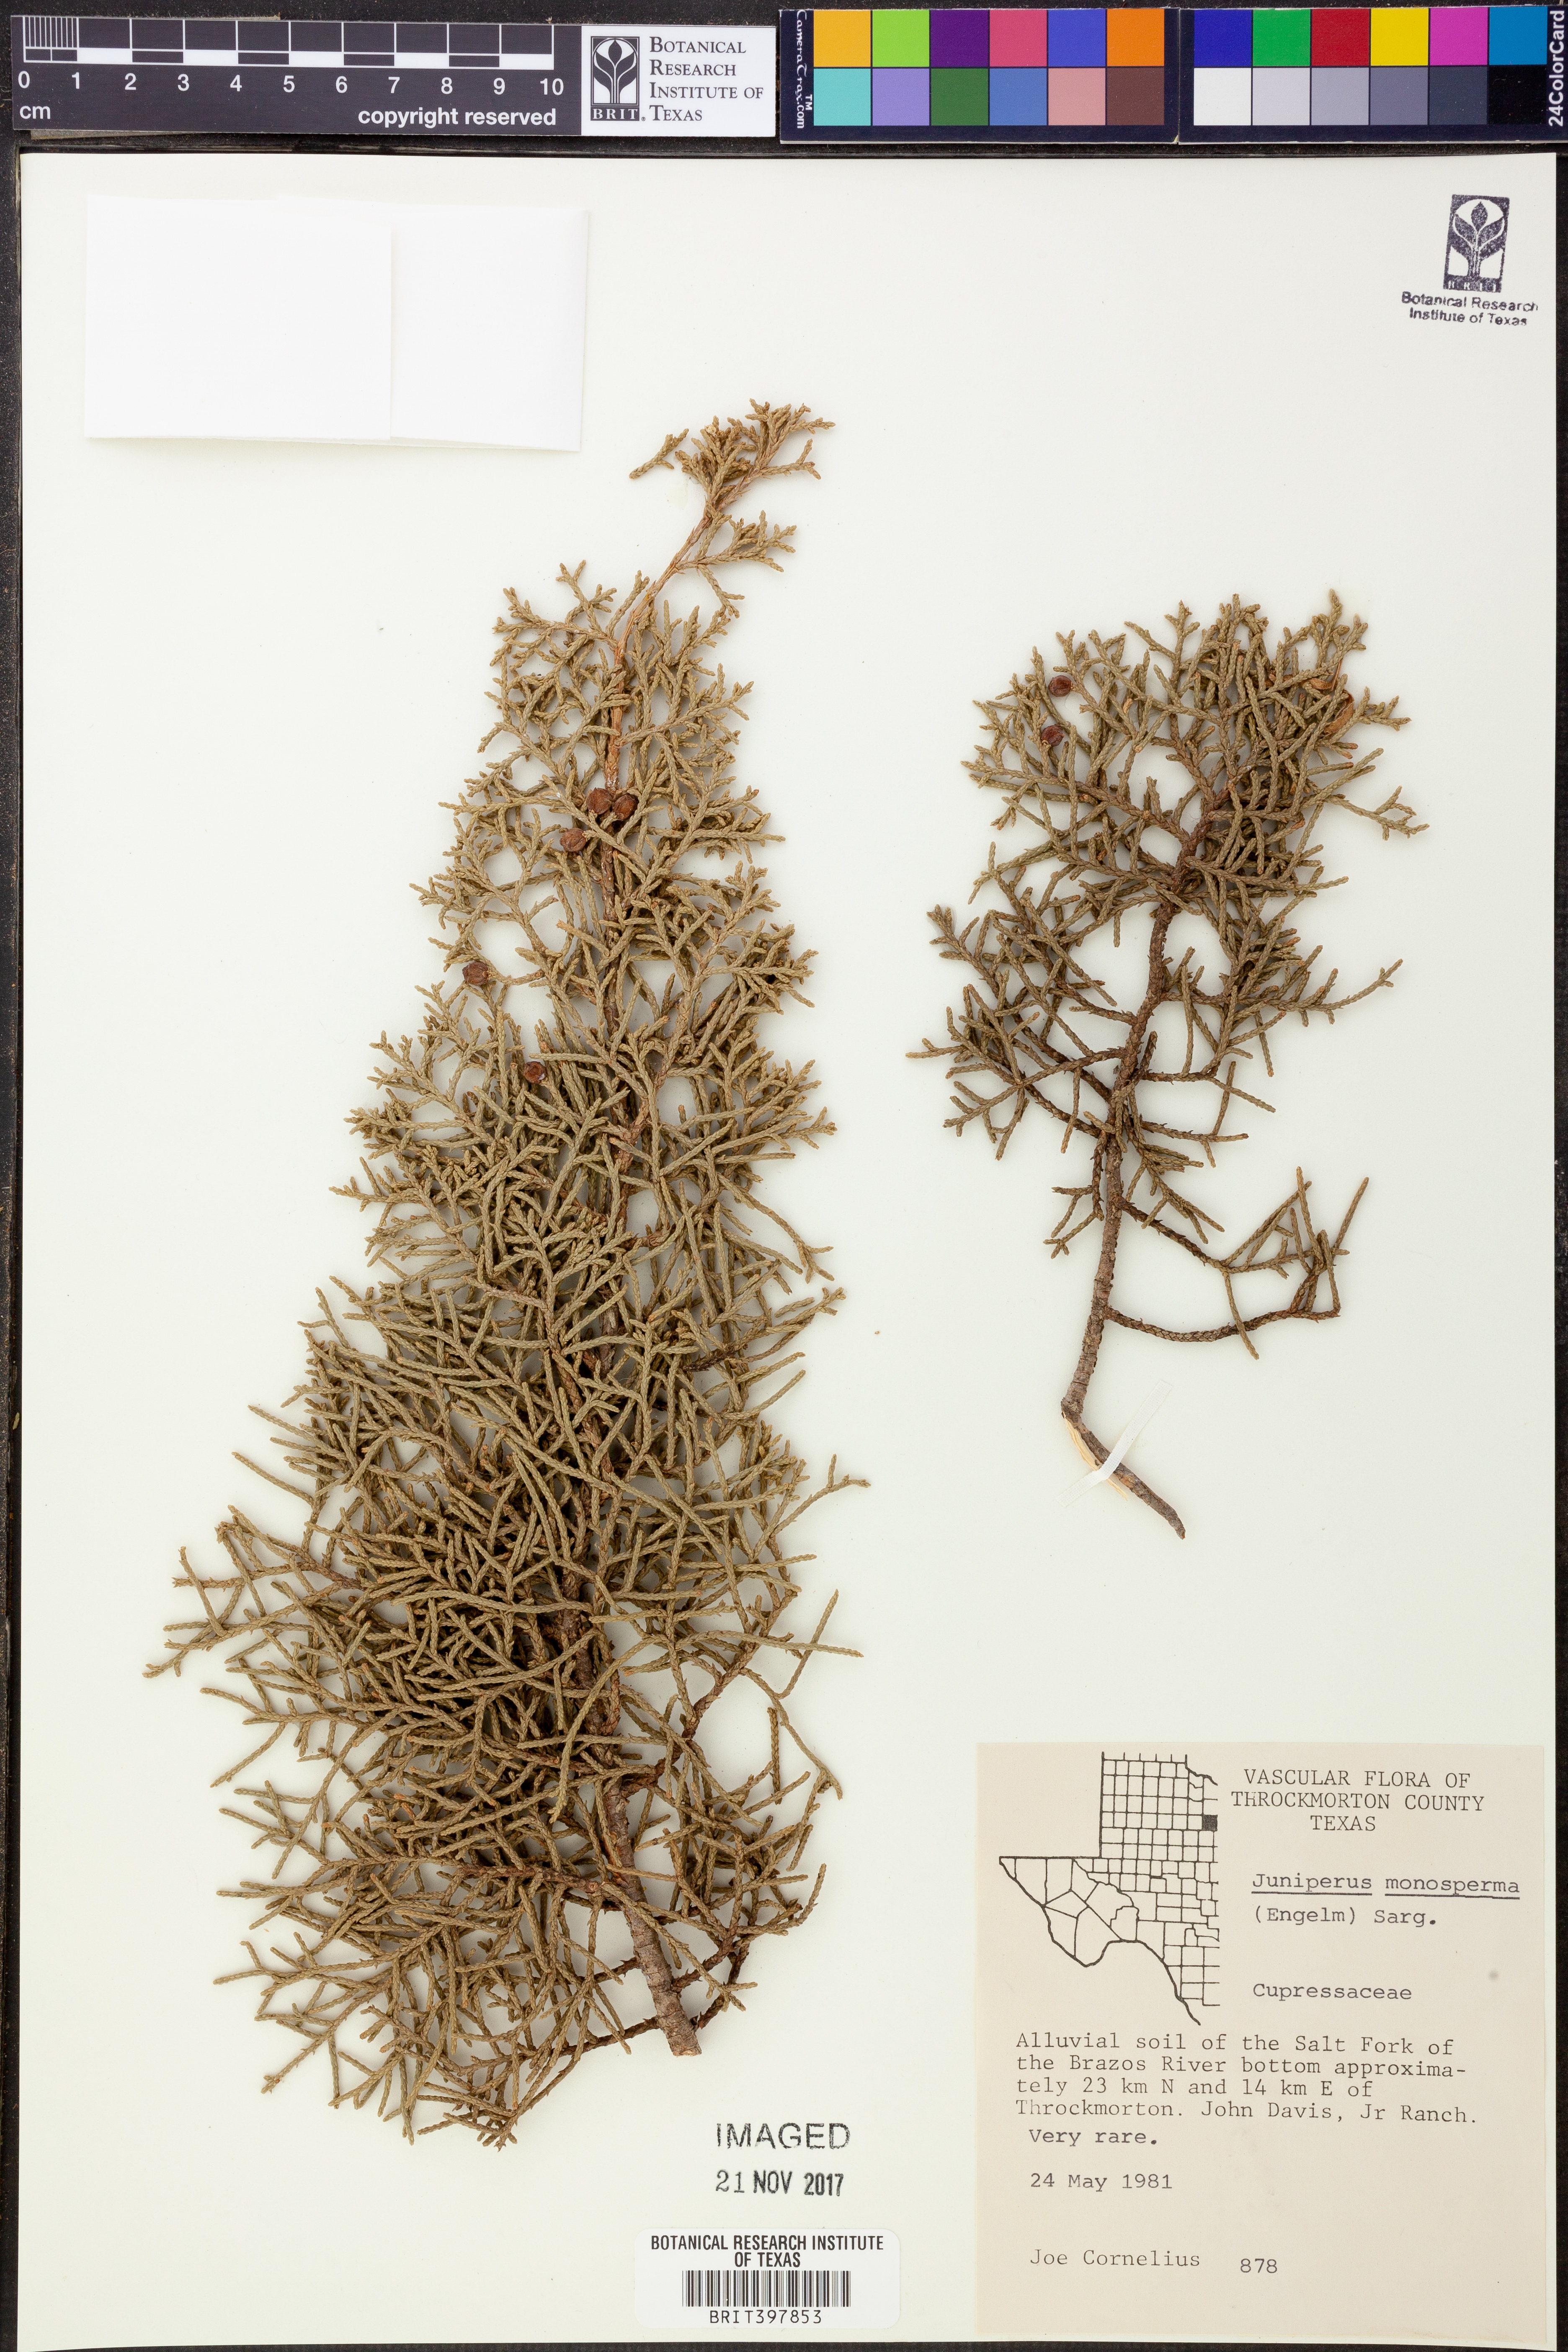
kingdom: Plantae
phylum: Tracheophyta
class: Pinopsida
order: Pinales
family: Cupressaceae
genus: Juniperus
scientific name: Juniperus monosperma
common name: One-seed juniper
